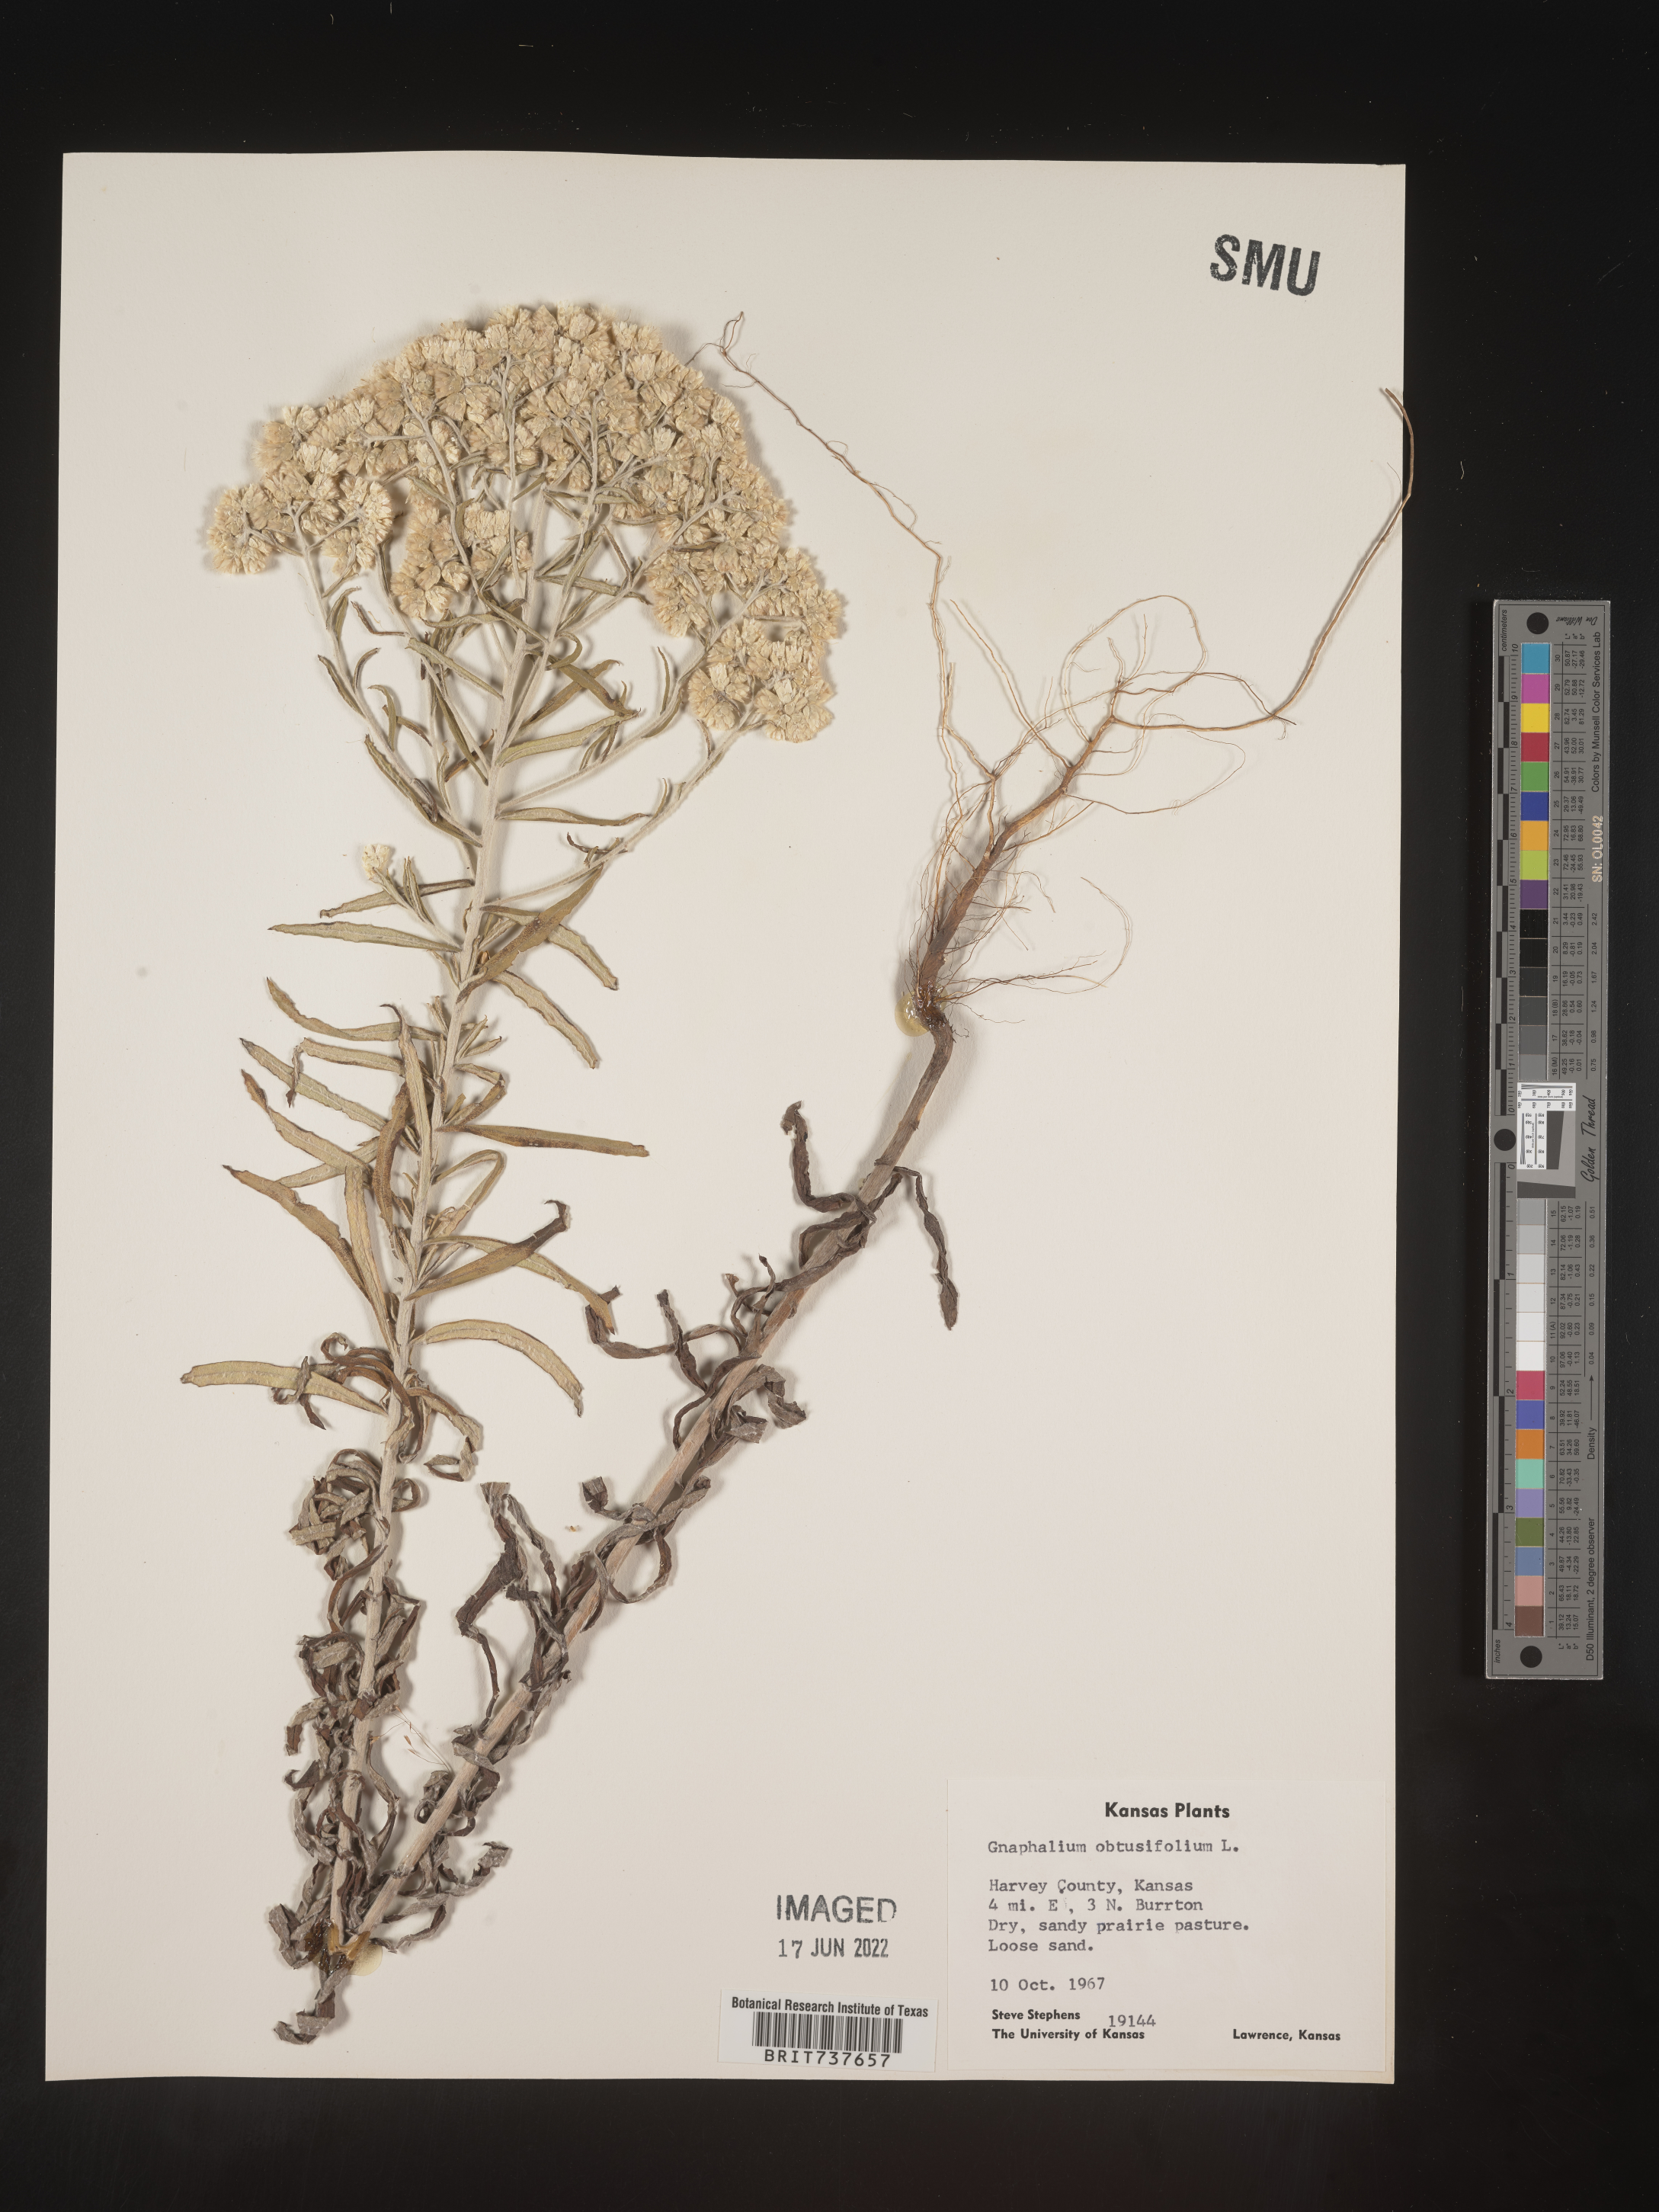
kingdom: Plantae
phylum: Tracheophyta
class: Magnoliopsida
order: Asterales
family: Asteraceae
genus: Pseudognaphalium
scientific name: Pseudognaphalium obtusifolium
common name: Eastern rabbit-tobacco
